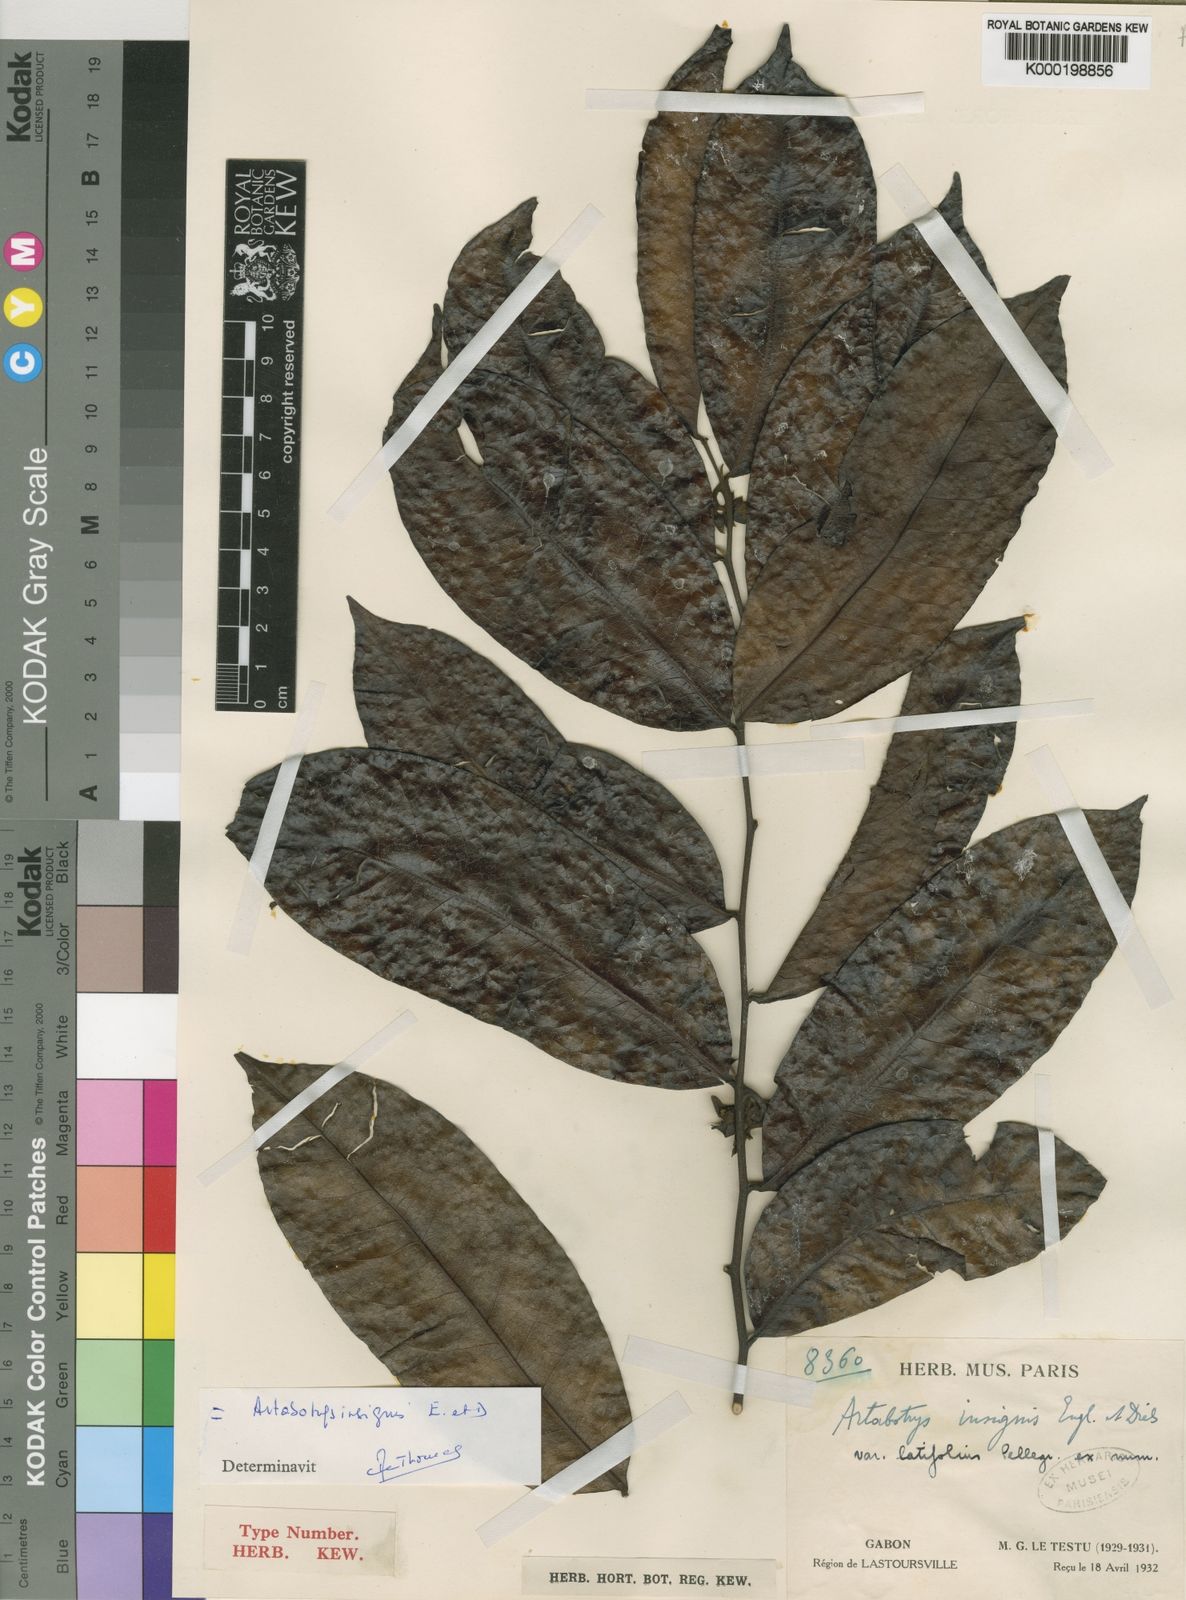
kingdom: Plantae
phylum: Tracheophyta
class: Magnoliopsida
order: Magnoliales
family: Annonaceae
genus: Artabotrys
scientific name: Artabotrys insignis
